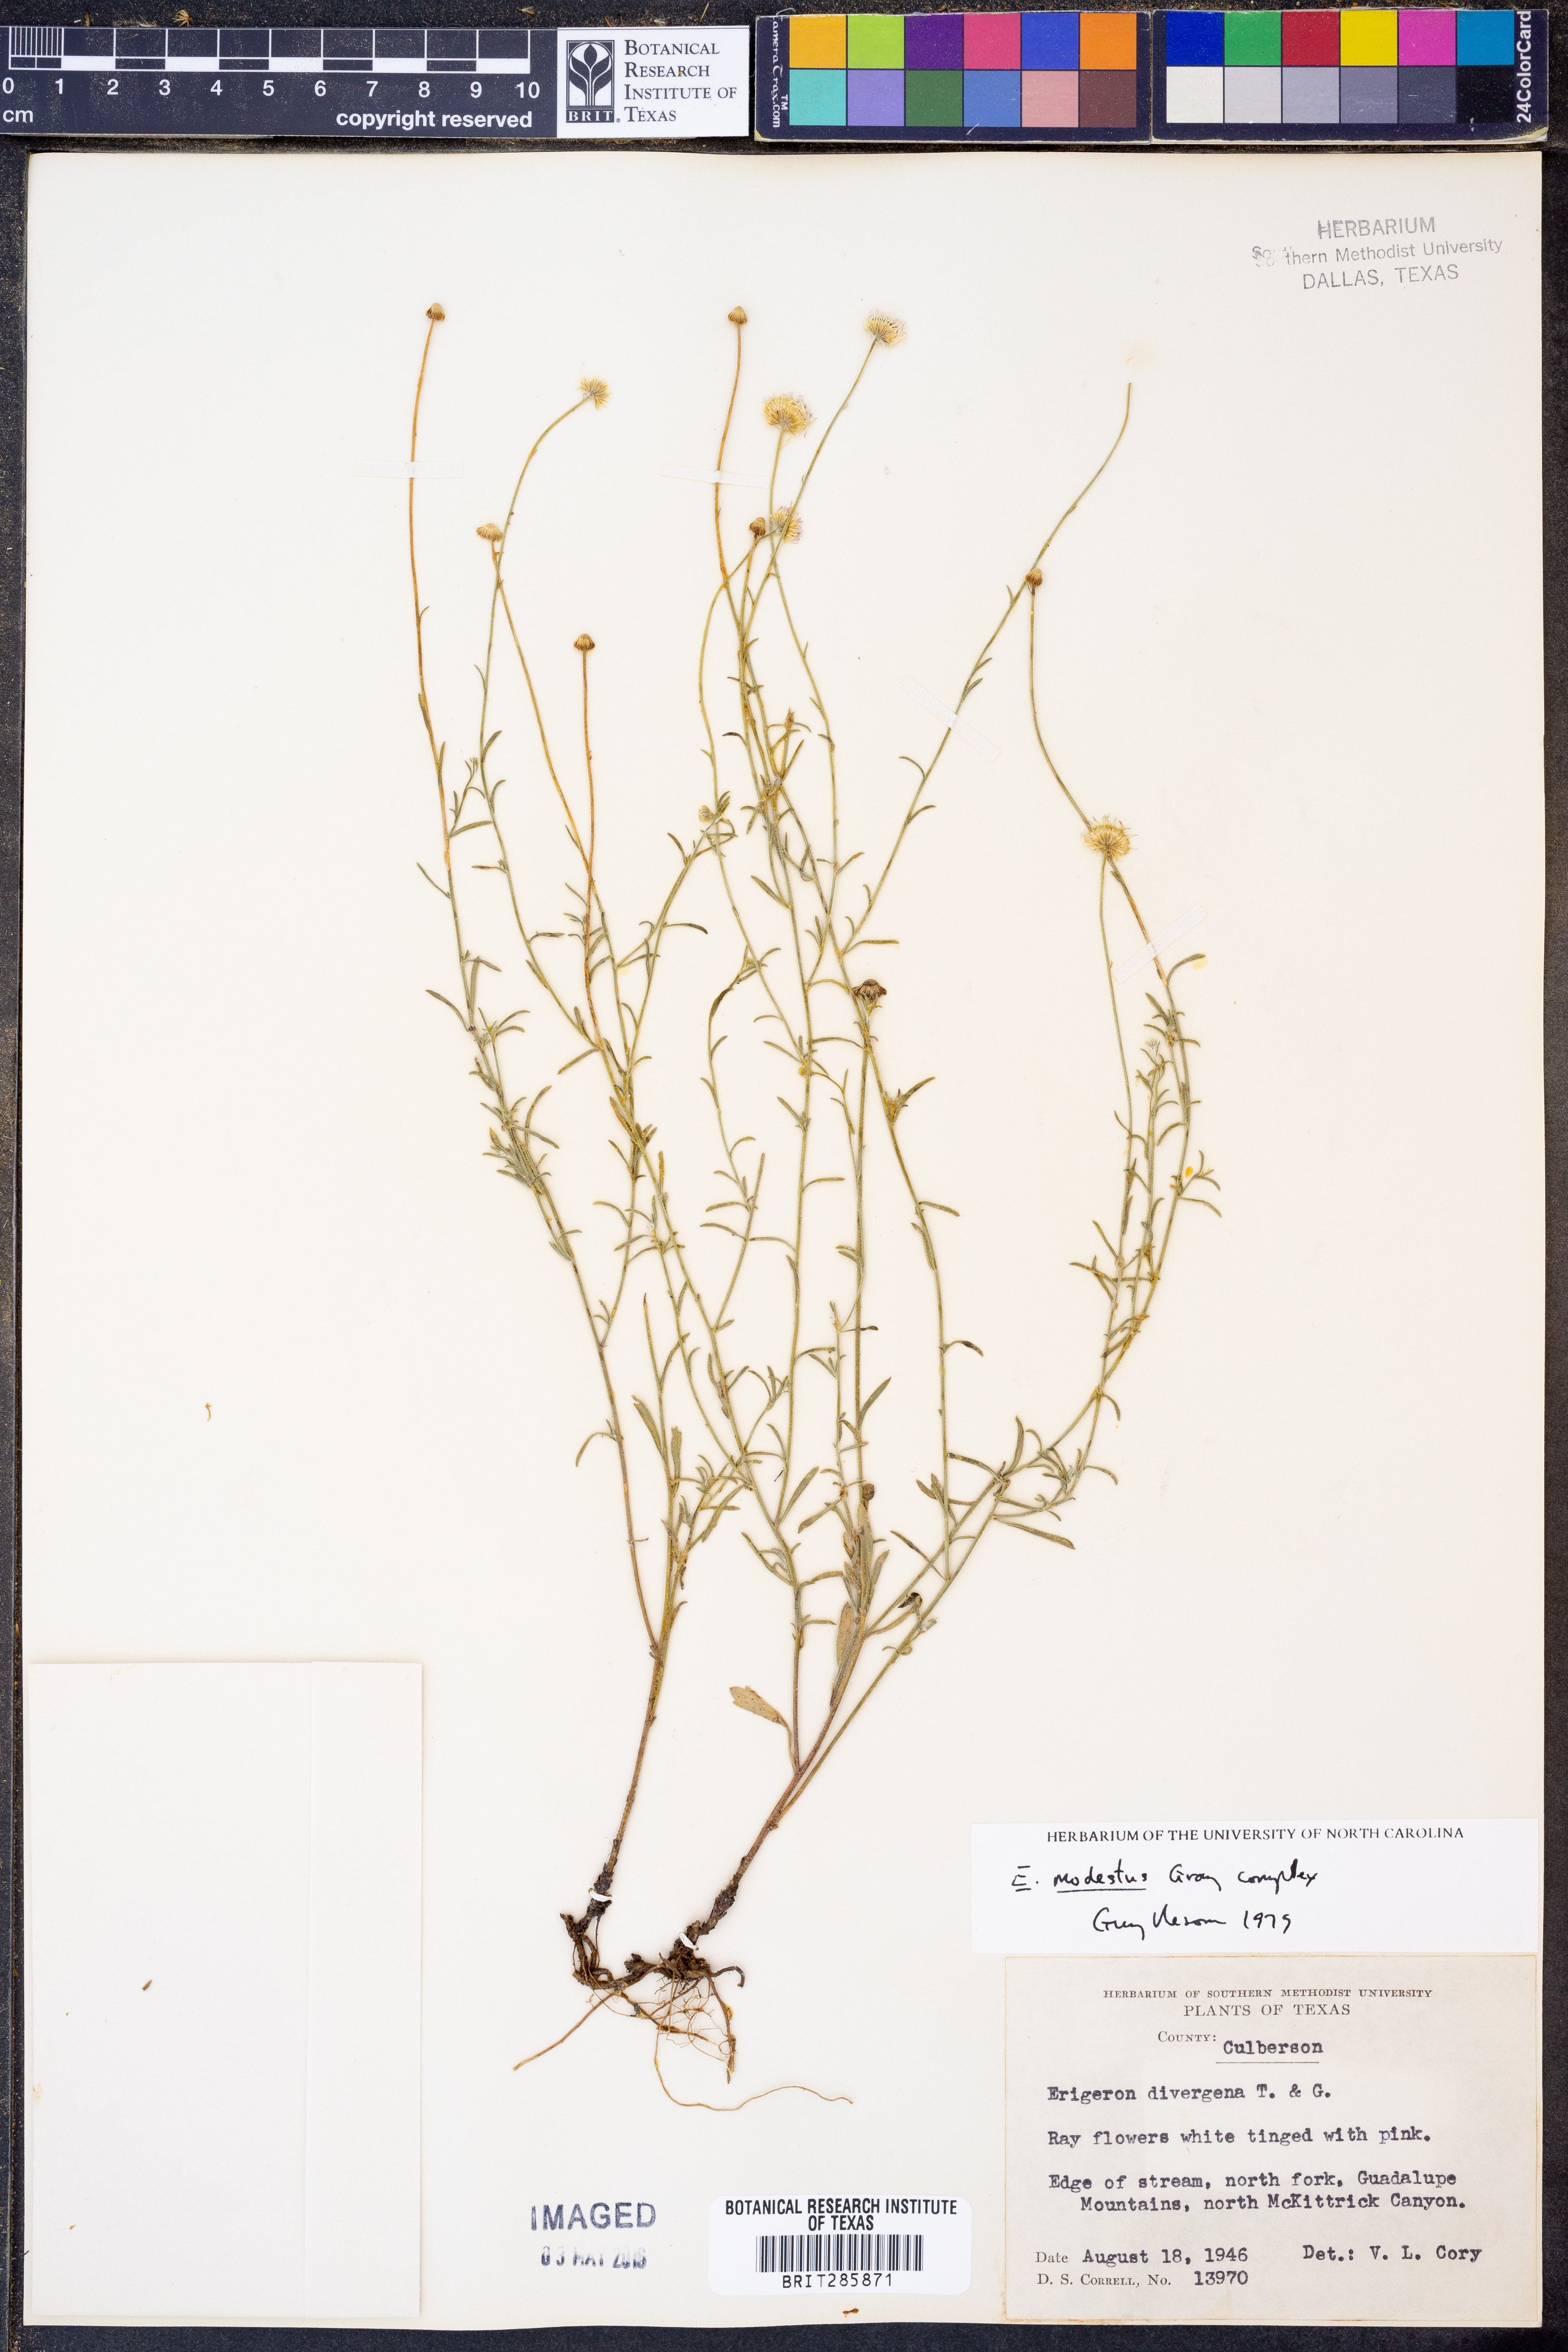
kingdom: Plantae
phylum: Tracheophyta
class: Magnoliopsida
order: Asterales
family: Asteraceae
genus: Erigeron
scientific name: Erigeron modestus
